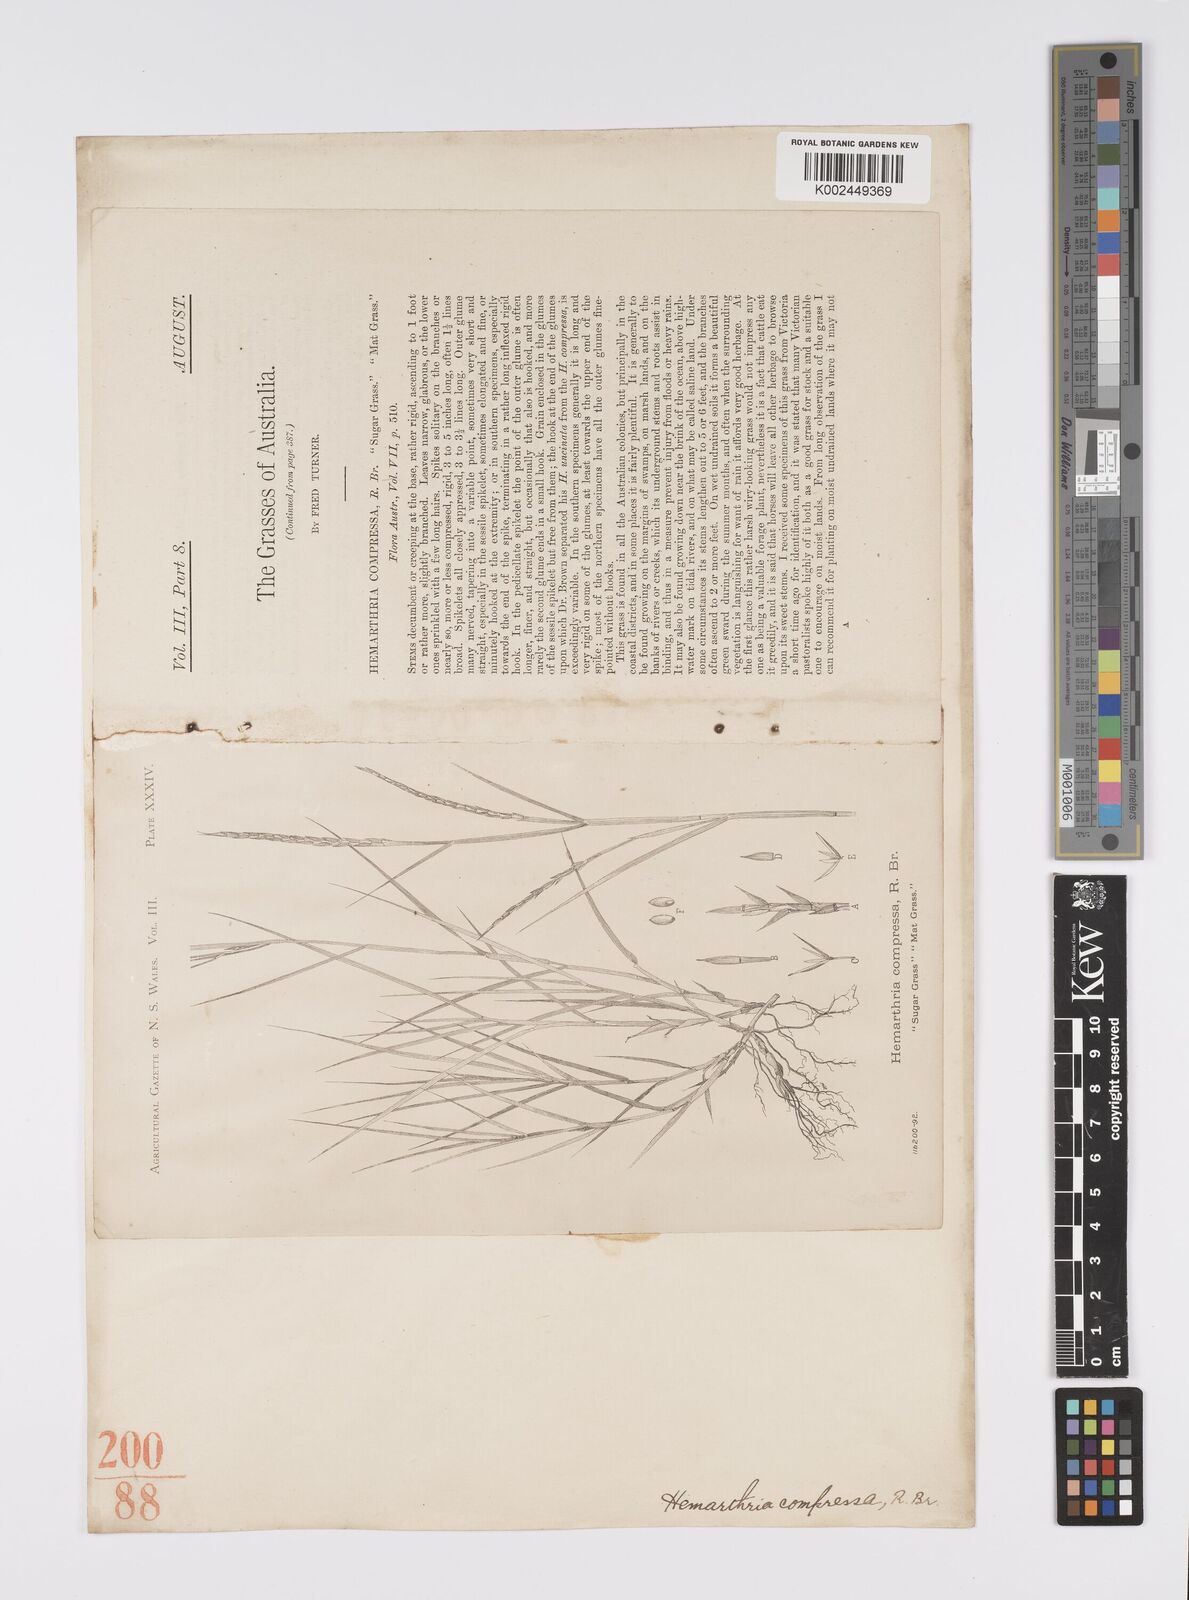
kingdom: Plantae
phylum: Tracheophyta
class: Liliopsida
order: Poales
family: Poaceae
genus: Hemarthria
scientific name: Hemarthria uncinata
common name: Matgrass
